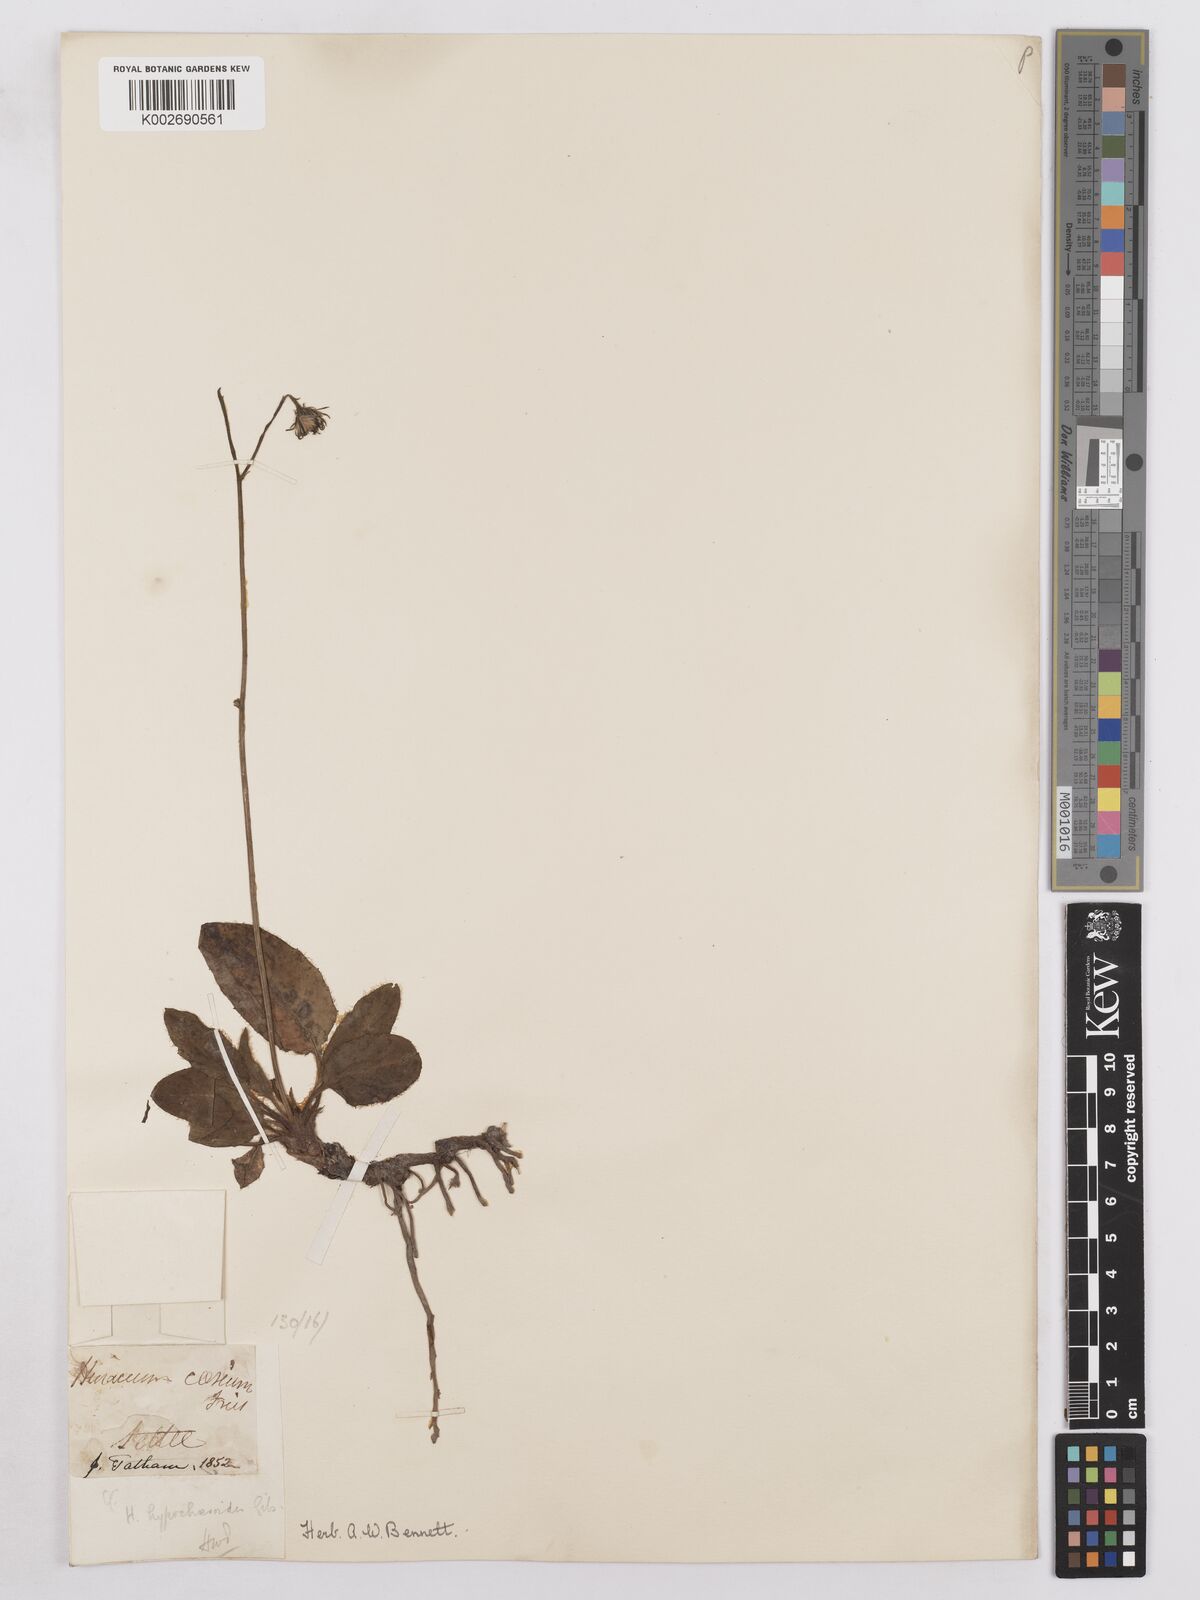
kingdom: Plantae
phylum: Tracheophyta
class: Magnoliopsida
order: Asterales
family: Asteraceae
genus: Hieracium
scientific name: Hieracium hypochoeroides
